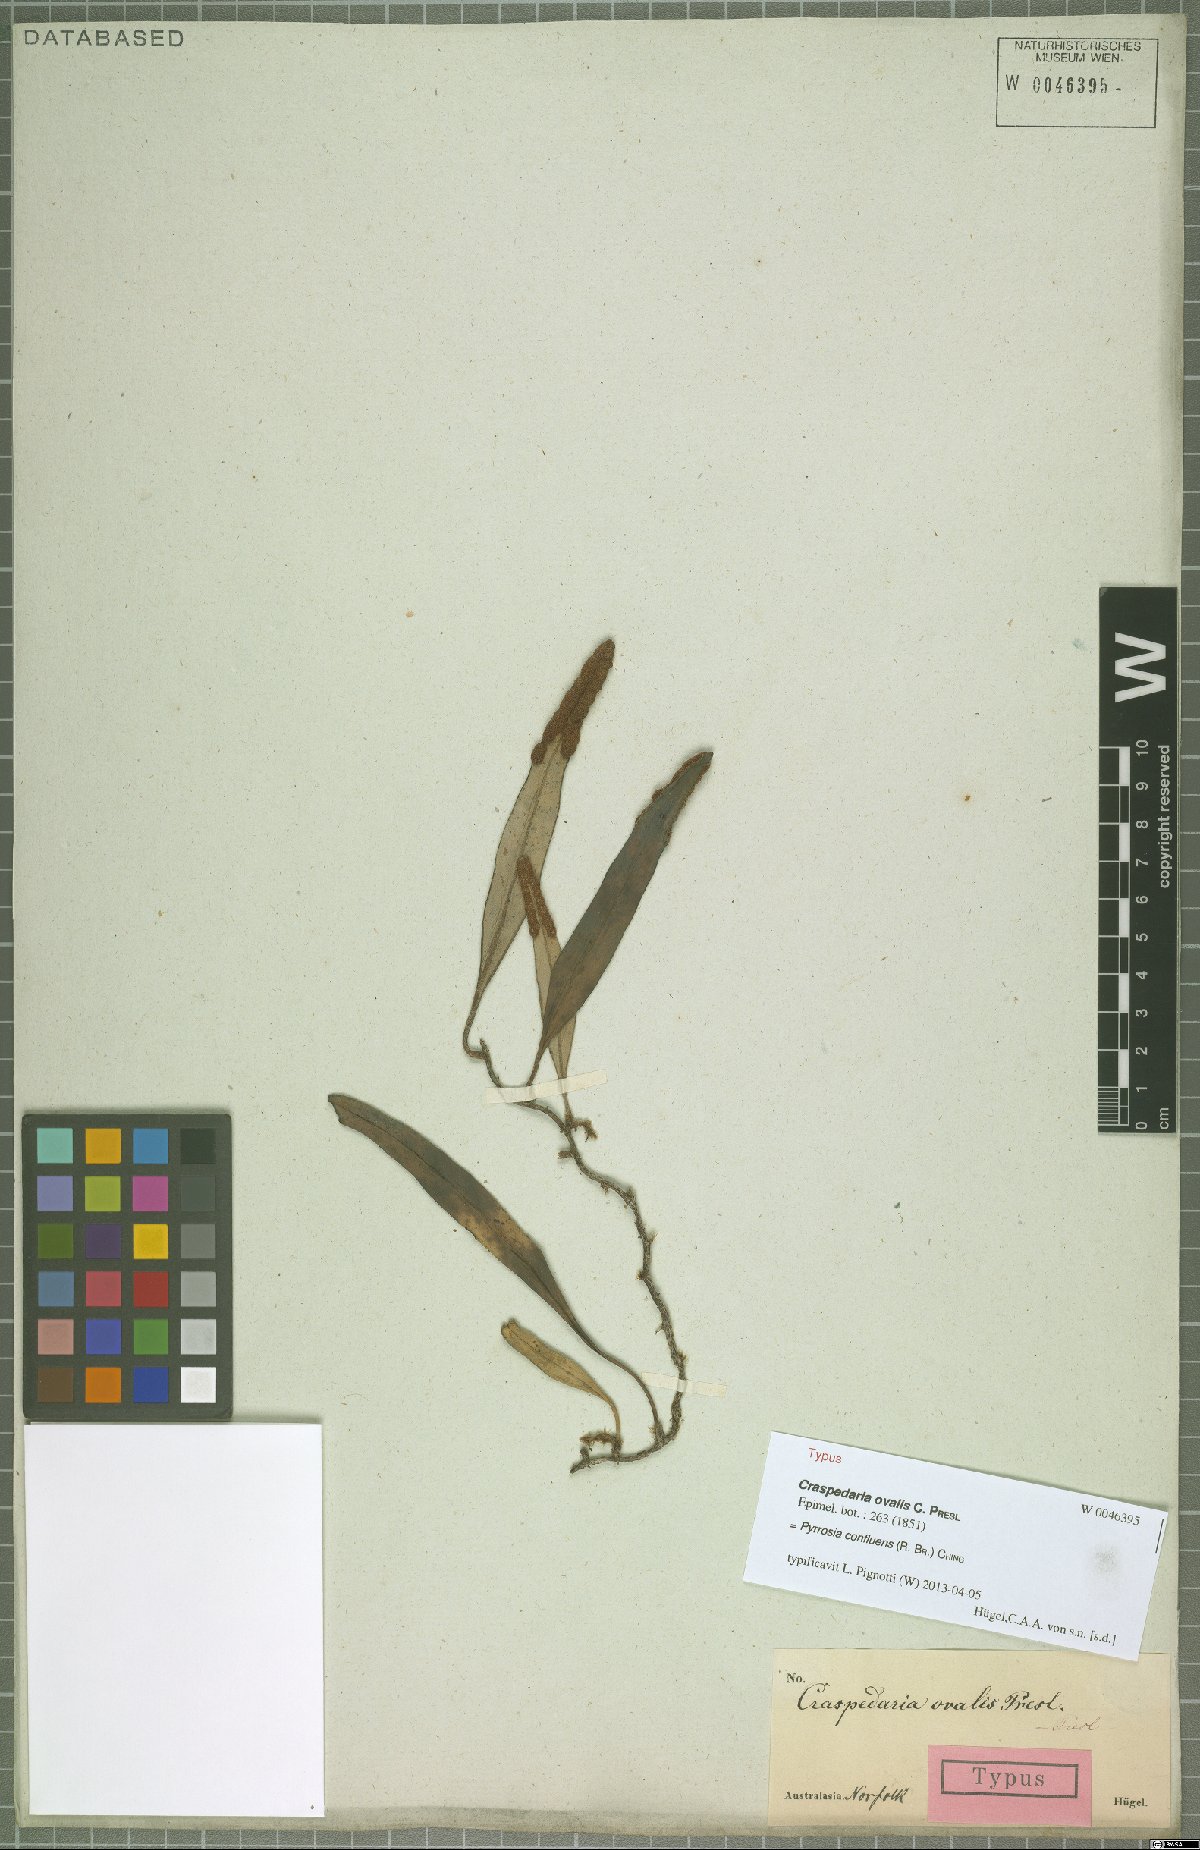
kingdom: Plantae
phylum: Tracheophyta
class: Polypodiopsida
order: Polypodiales
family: Polypodiaceae
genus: Pyrrosia
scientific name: Pyrrosia confluens
